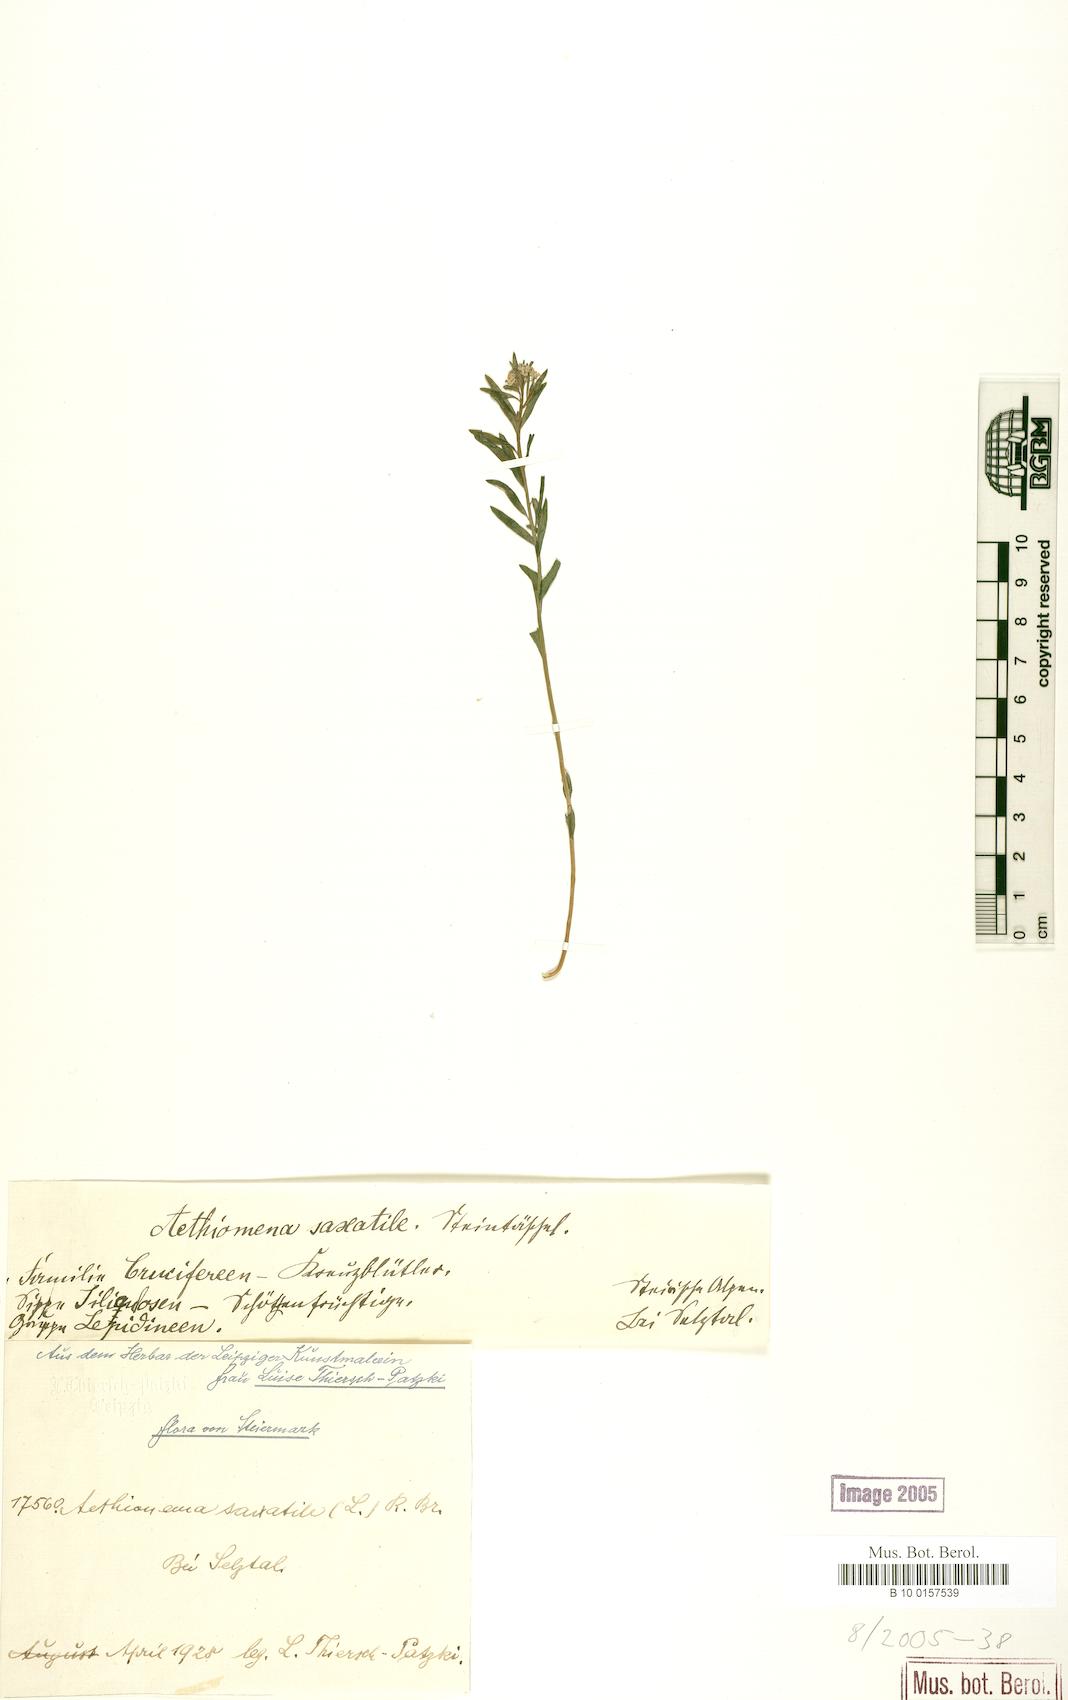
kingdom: Plantae
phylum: Tracheophyta
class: Magnoliopsida
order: Brassicales
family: Brassicaceae
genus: Aethionema
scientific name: Aethionema saxatile
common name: Burnt candytuft
